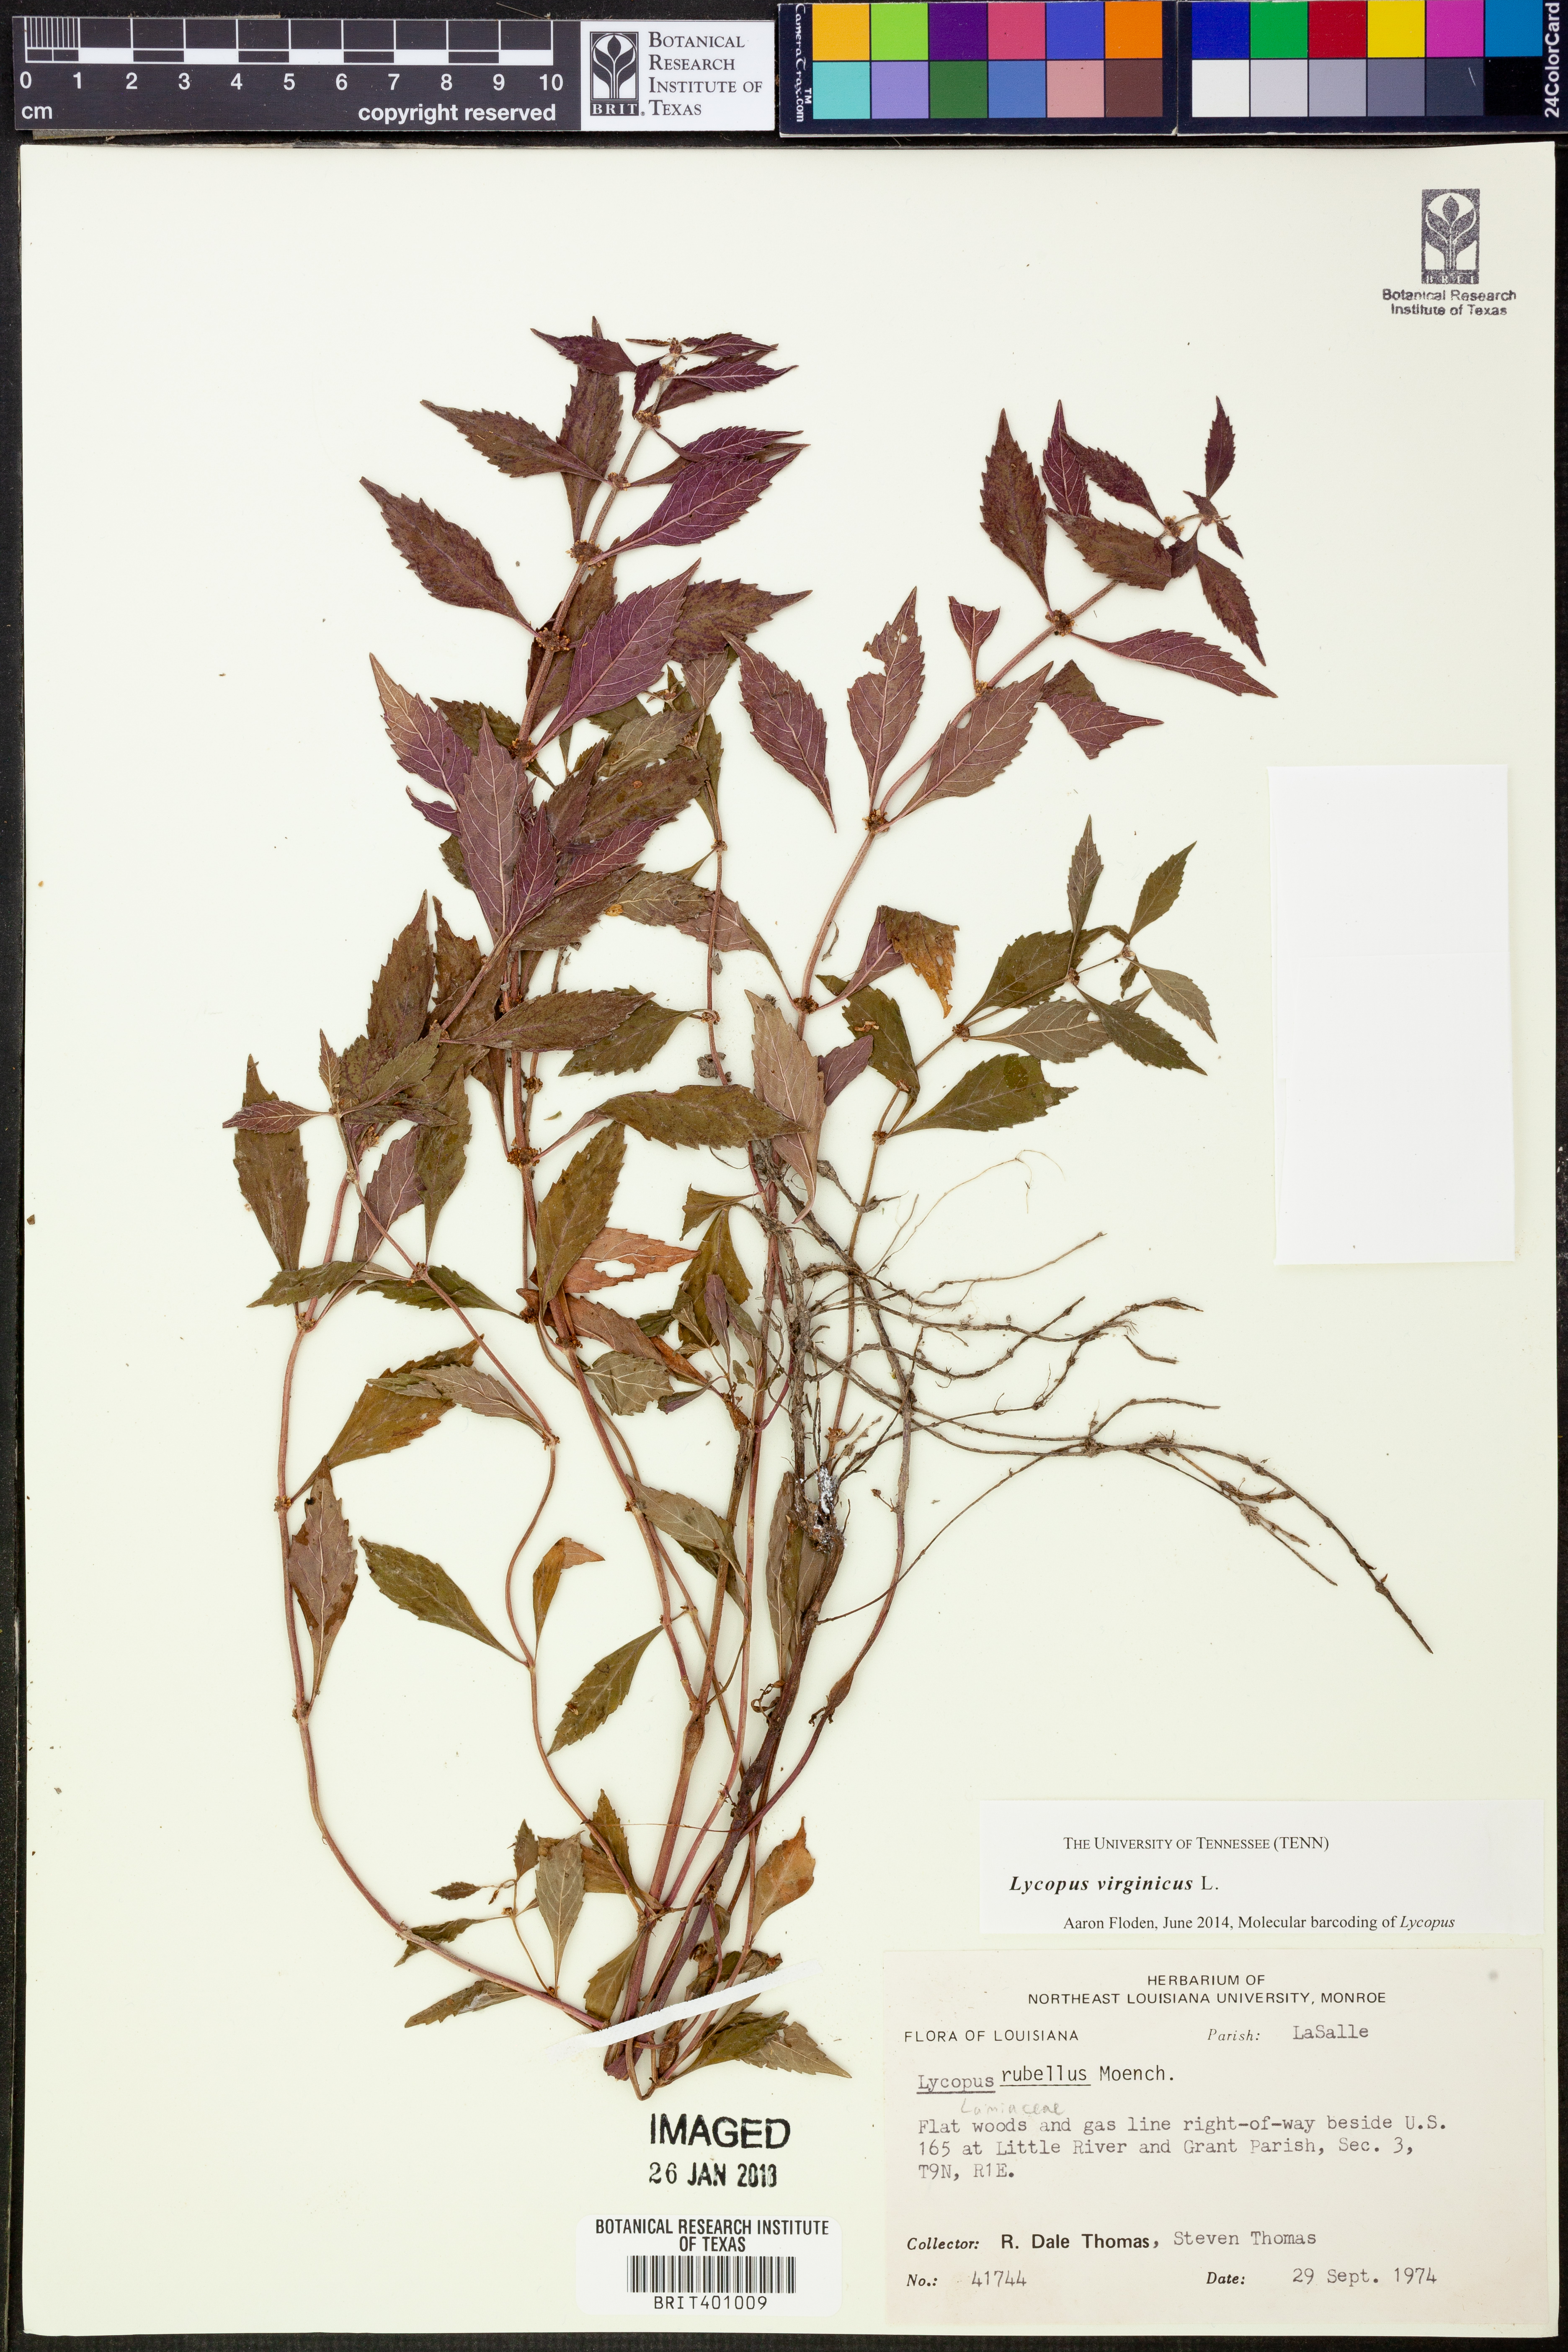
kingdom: Plantae
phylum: Tracheophyta
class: Magnoliopsida
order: Lamiales
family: Lamiaceae
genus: Lycopus
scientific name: Lycopus virginicus
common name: Bugleweed
